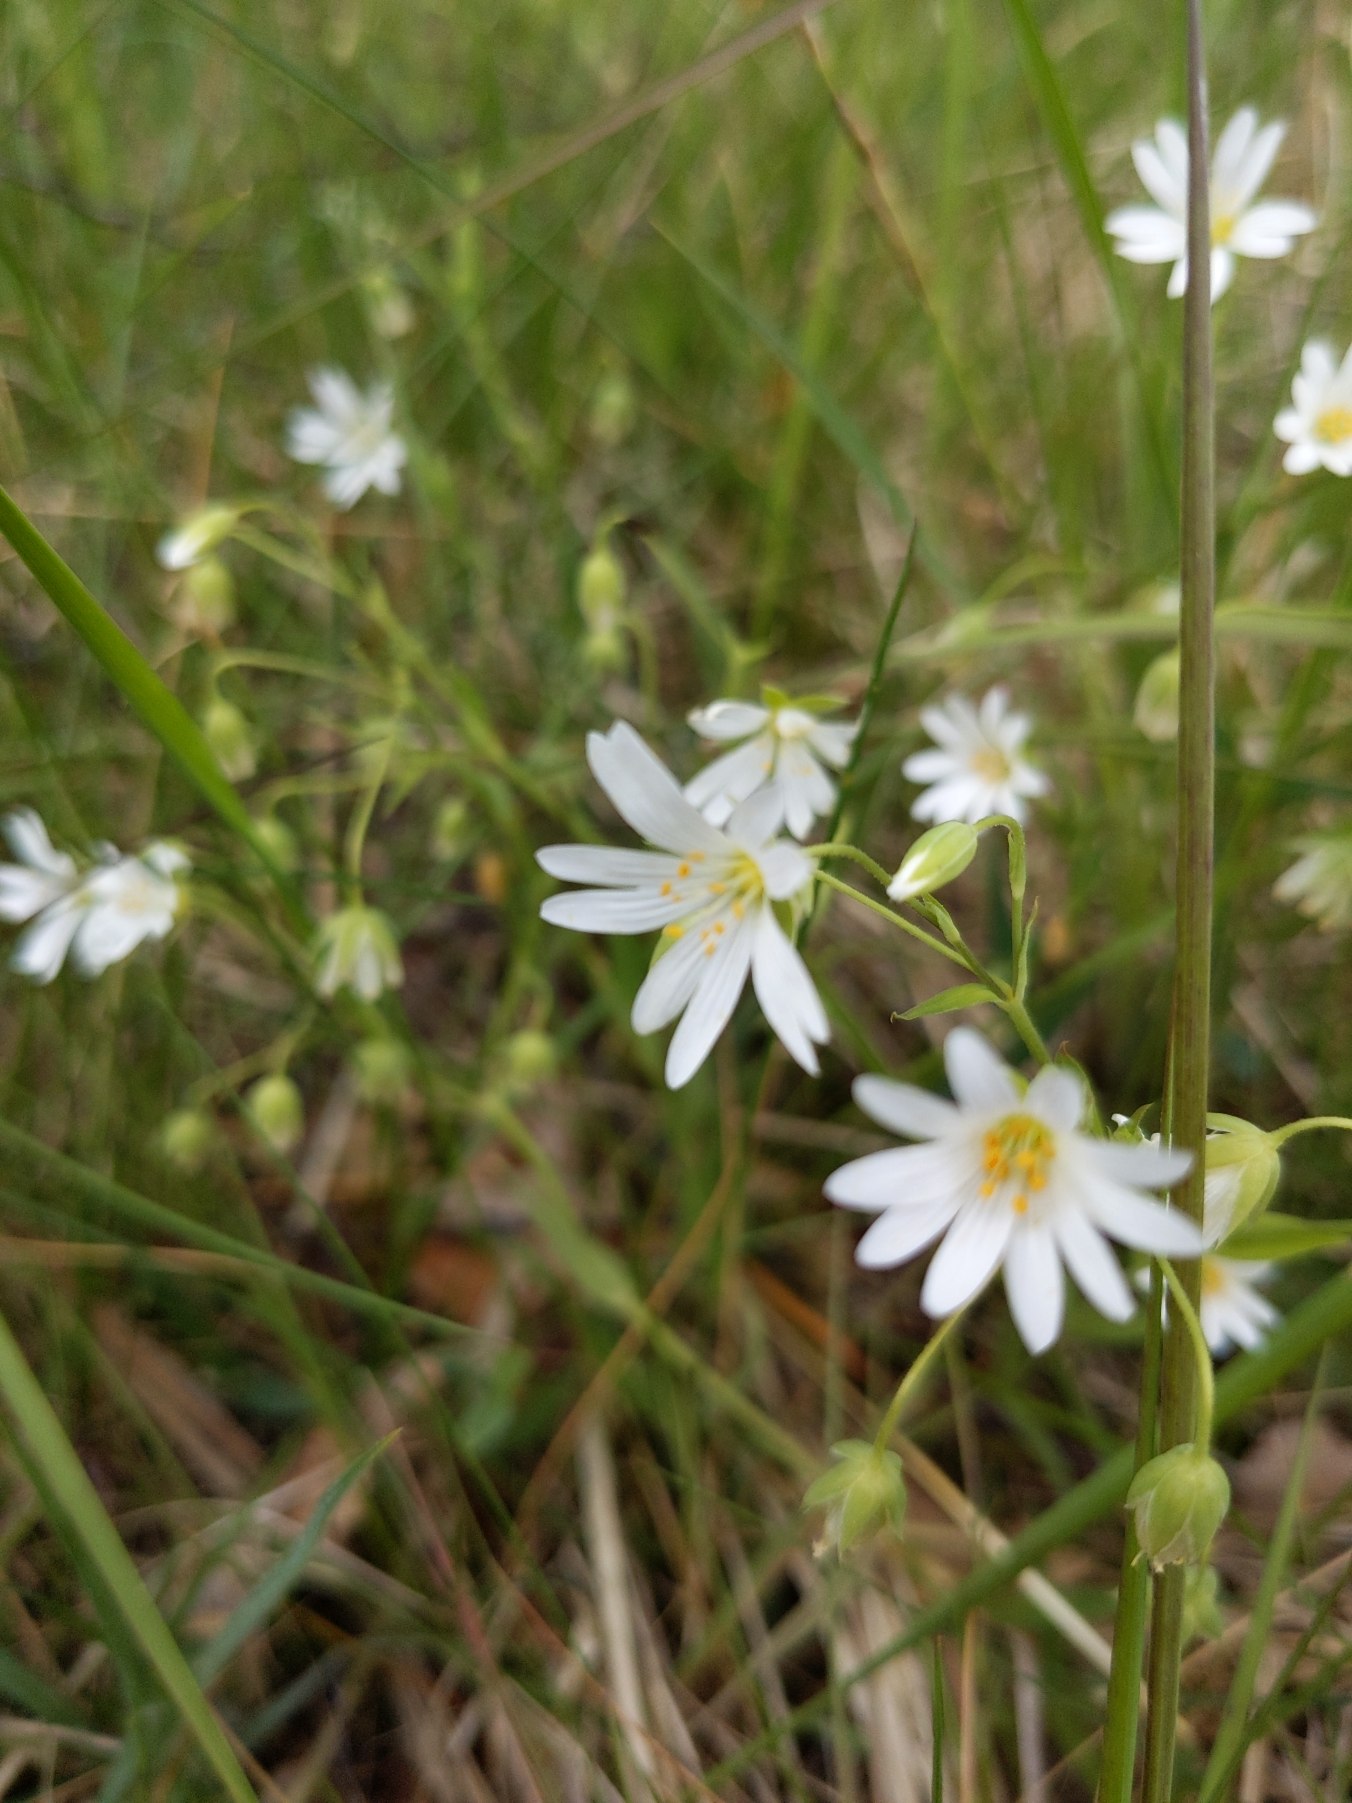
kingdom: Plantae
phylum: Tracheophyta
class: Magnoliopsida
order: Caryophyllales
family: Caryophyllaceae
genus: Rabelera
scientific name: Rabelera holostea
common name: Stor fladstjerne
